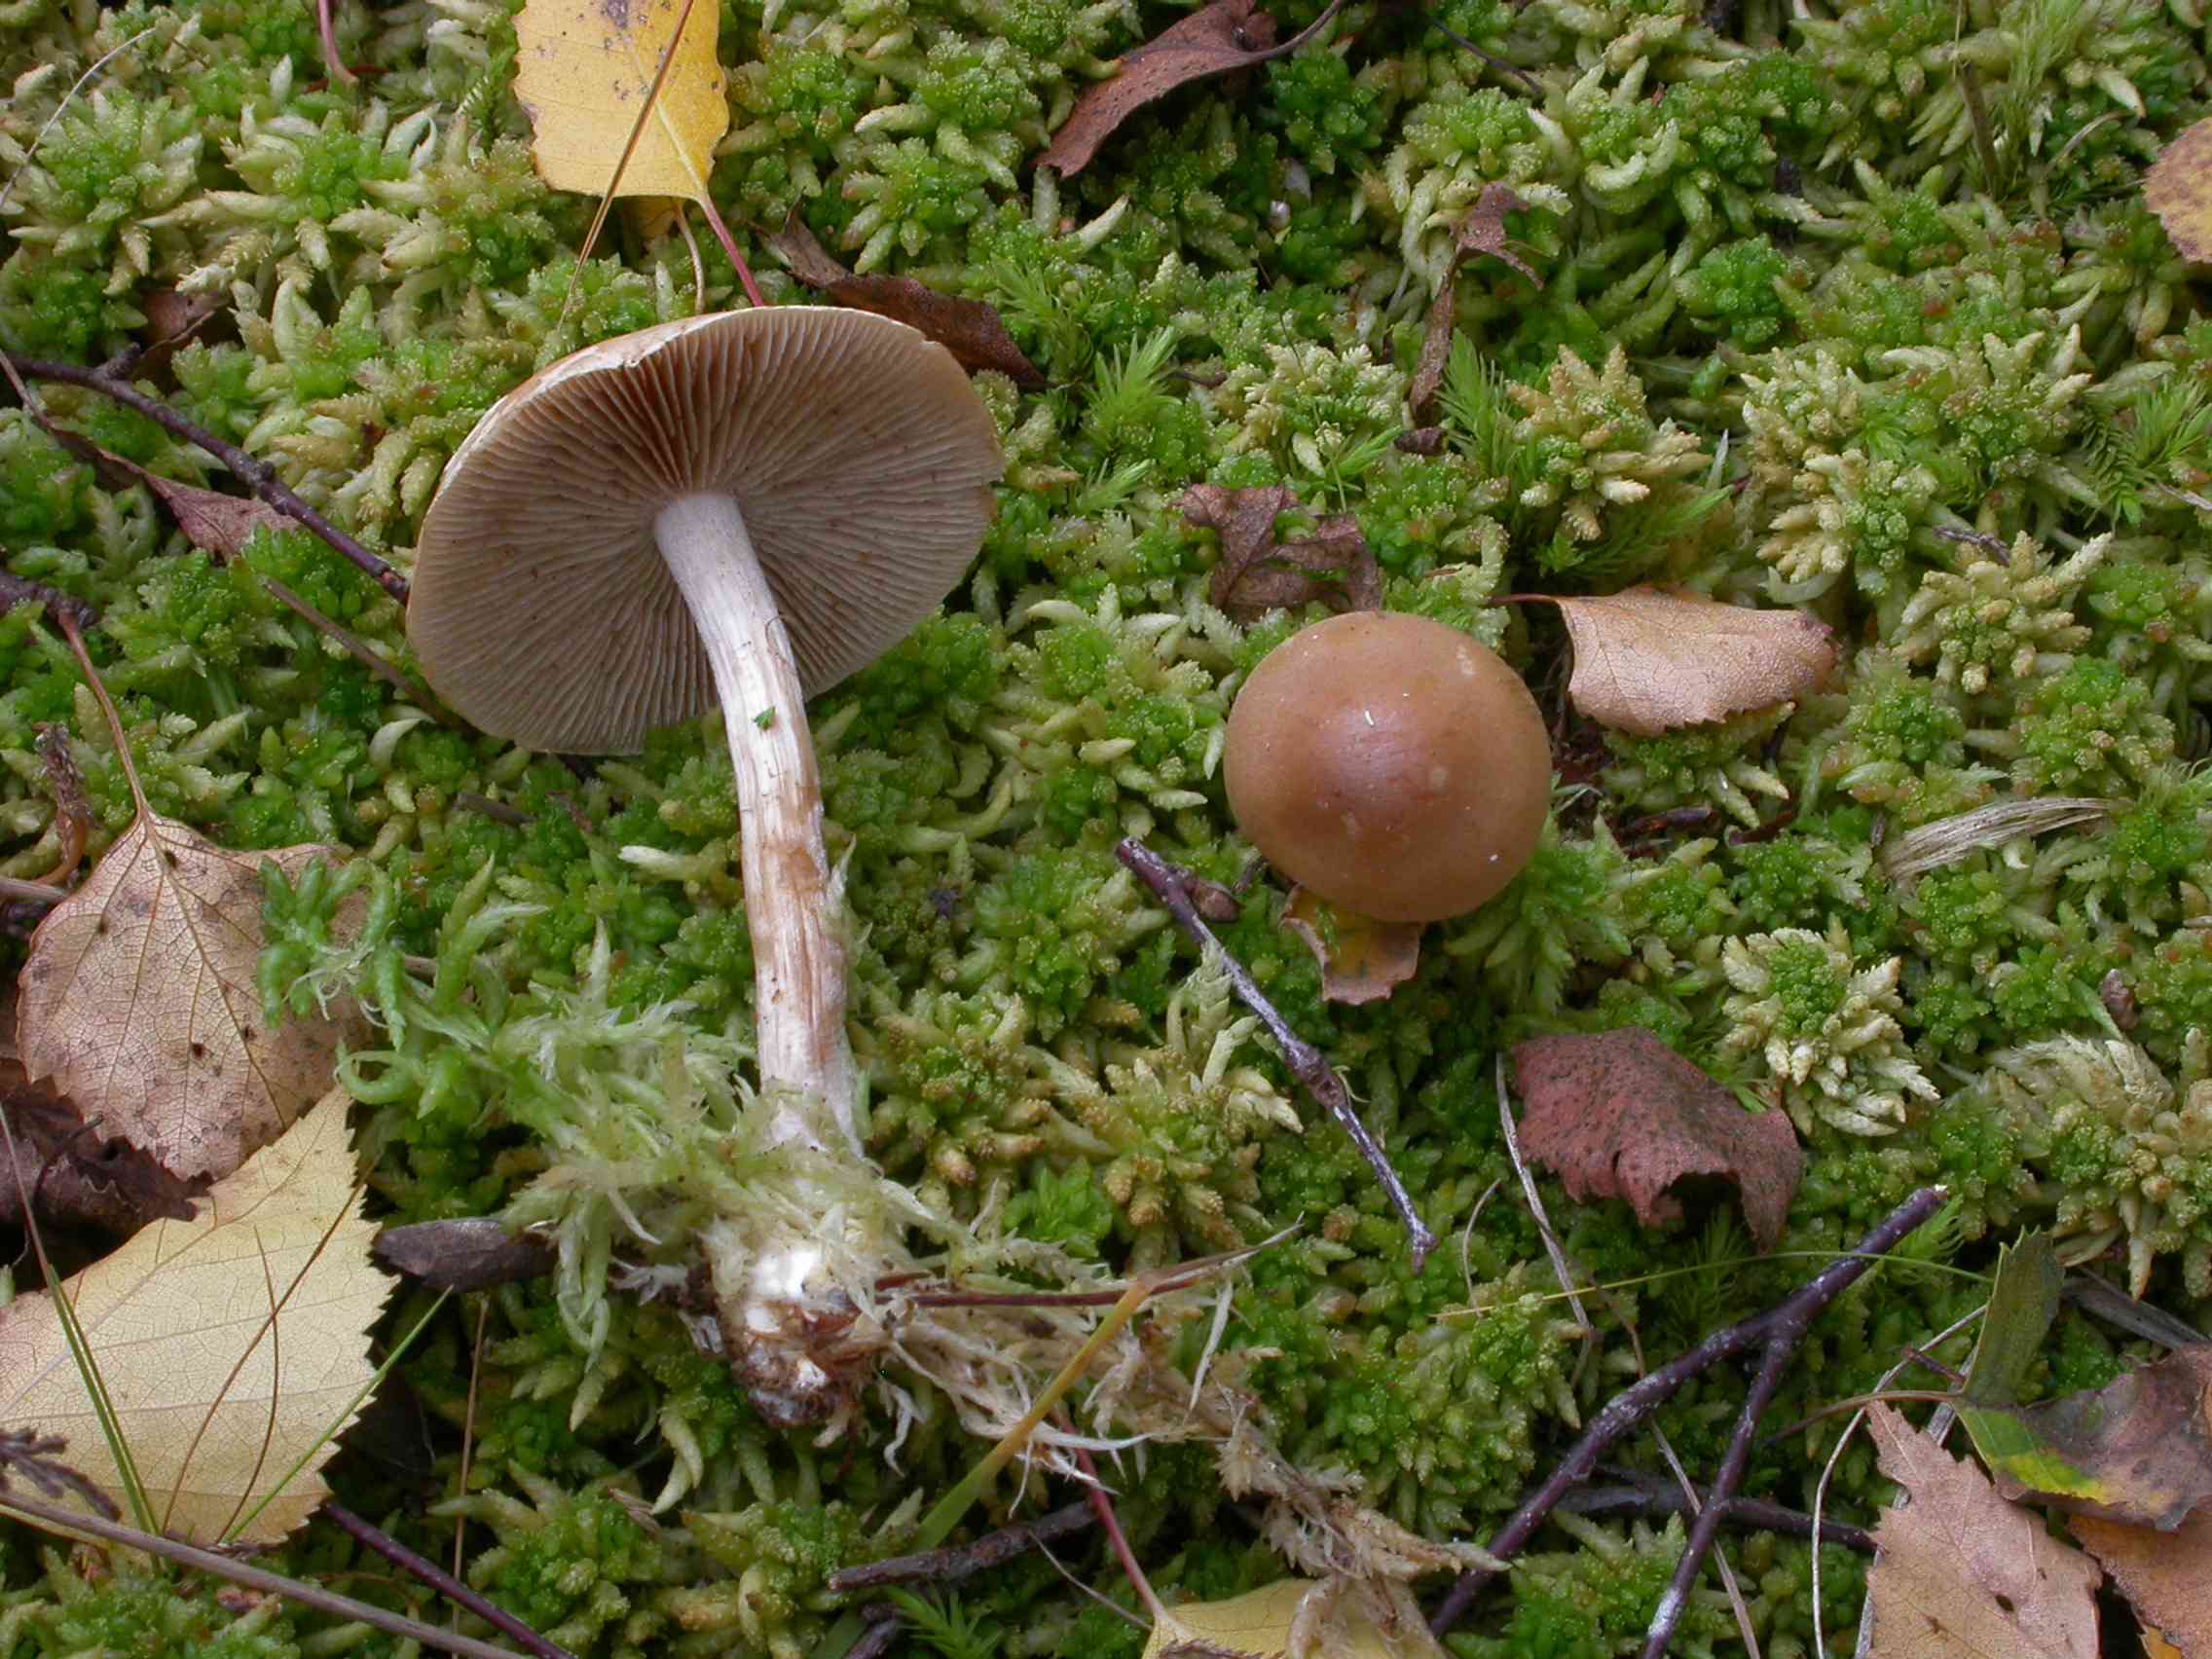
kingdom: Fungi
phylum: Basidiomycota
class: Agaricomycetes
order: Agaricales
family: Hymenogastraceae
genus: Hebeloma
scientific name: Hebeloma leucosarx
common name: højstokket tåreblad
